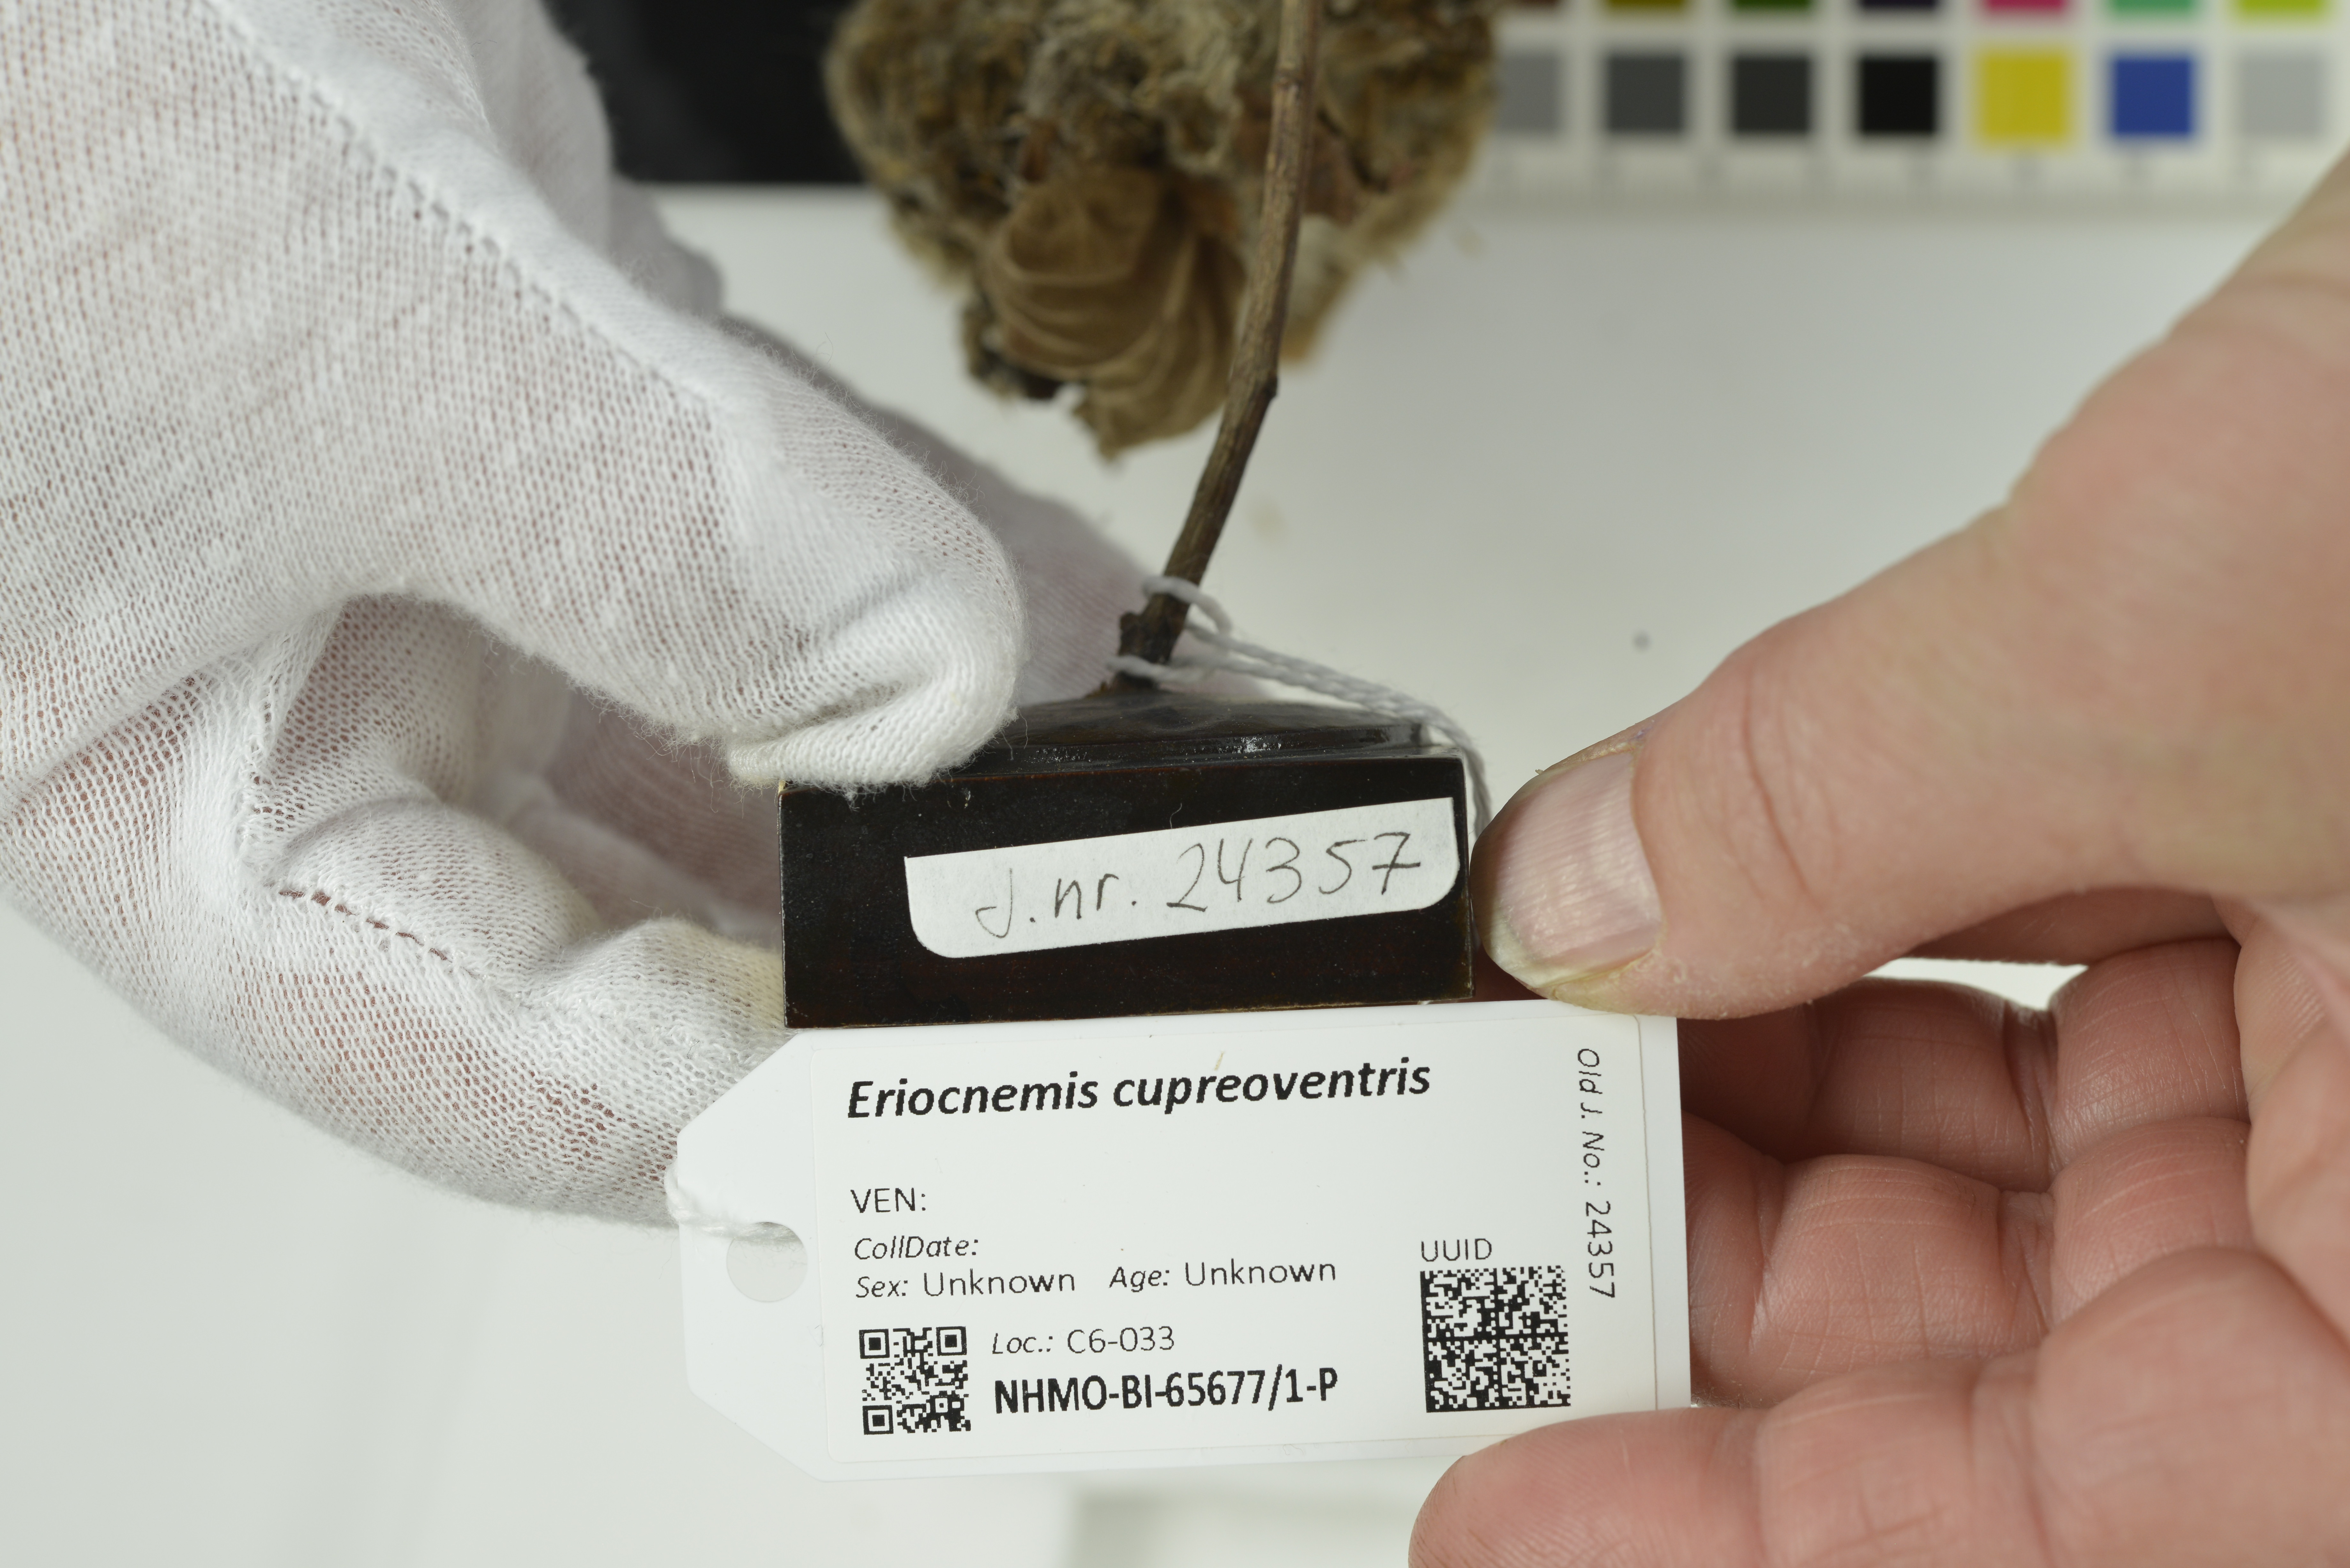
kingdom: Animalia
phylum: Chordata
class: Aves
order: Apodiformes
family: Trochilidae
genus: Eriocnemis
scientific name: Eriocnemis cupreoventris
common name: Coppery-bellied puffleg
